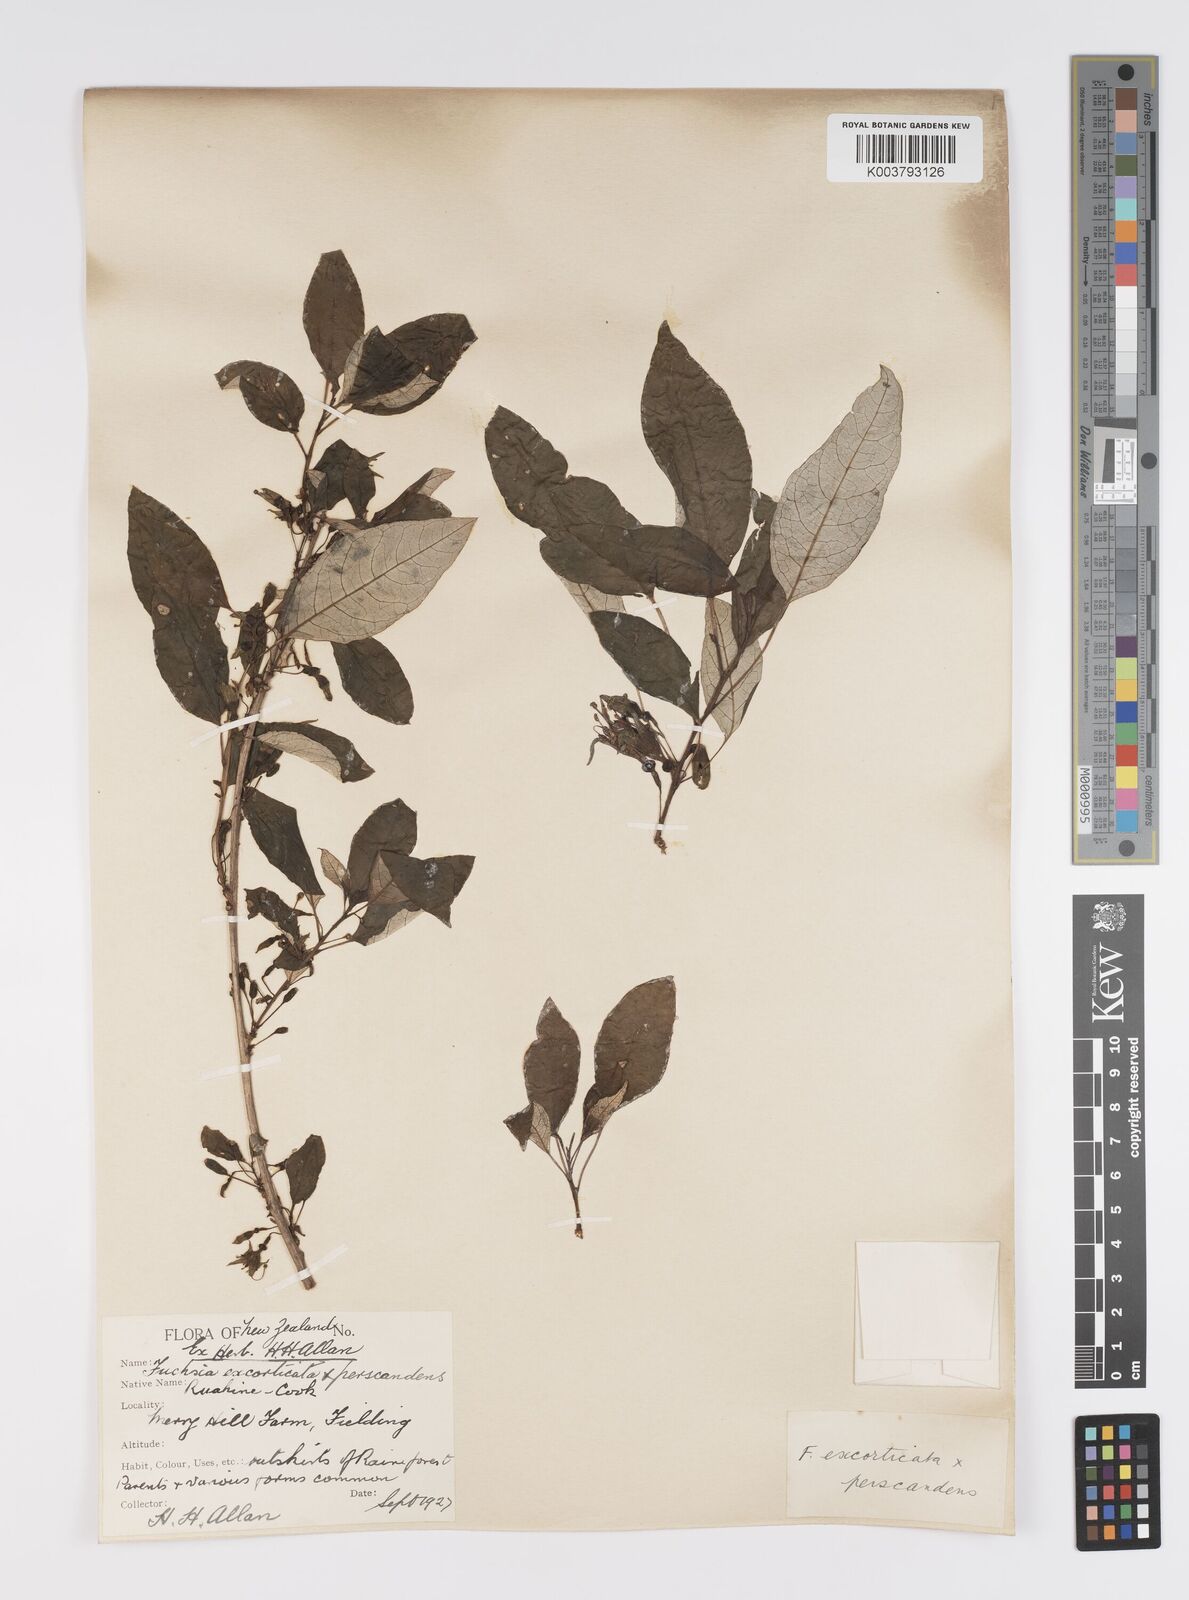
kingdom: Plantae
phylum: Tracheophyta
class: Magnoliopsida
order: Myrtales
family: Onagraceae
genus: Fuchsia
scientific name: Fuchsia excorticata
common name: Tree fuchsia
